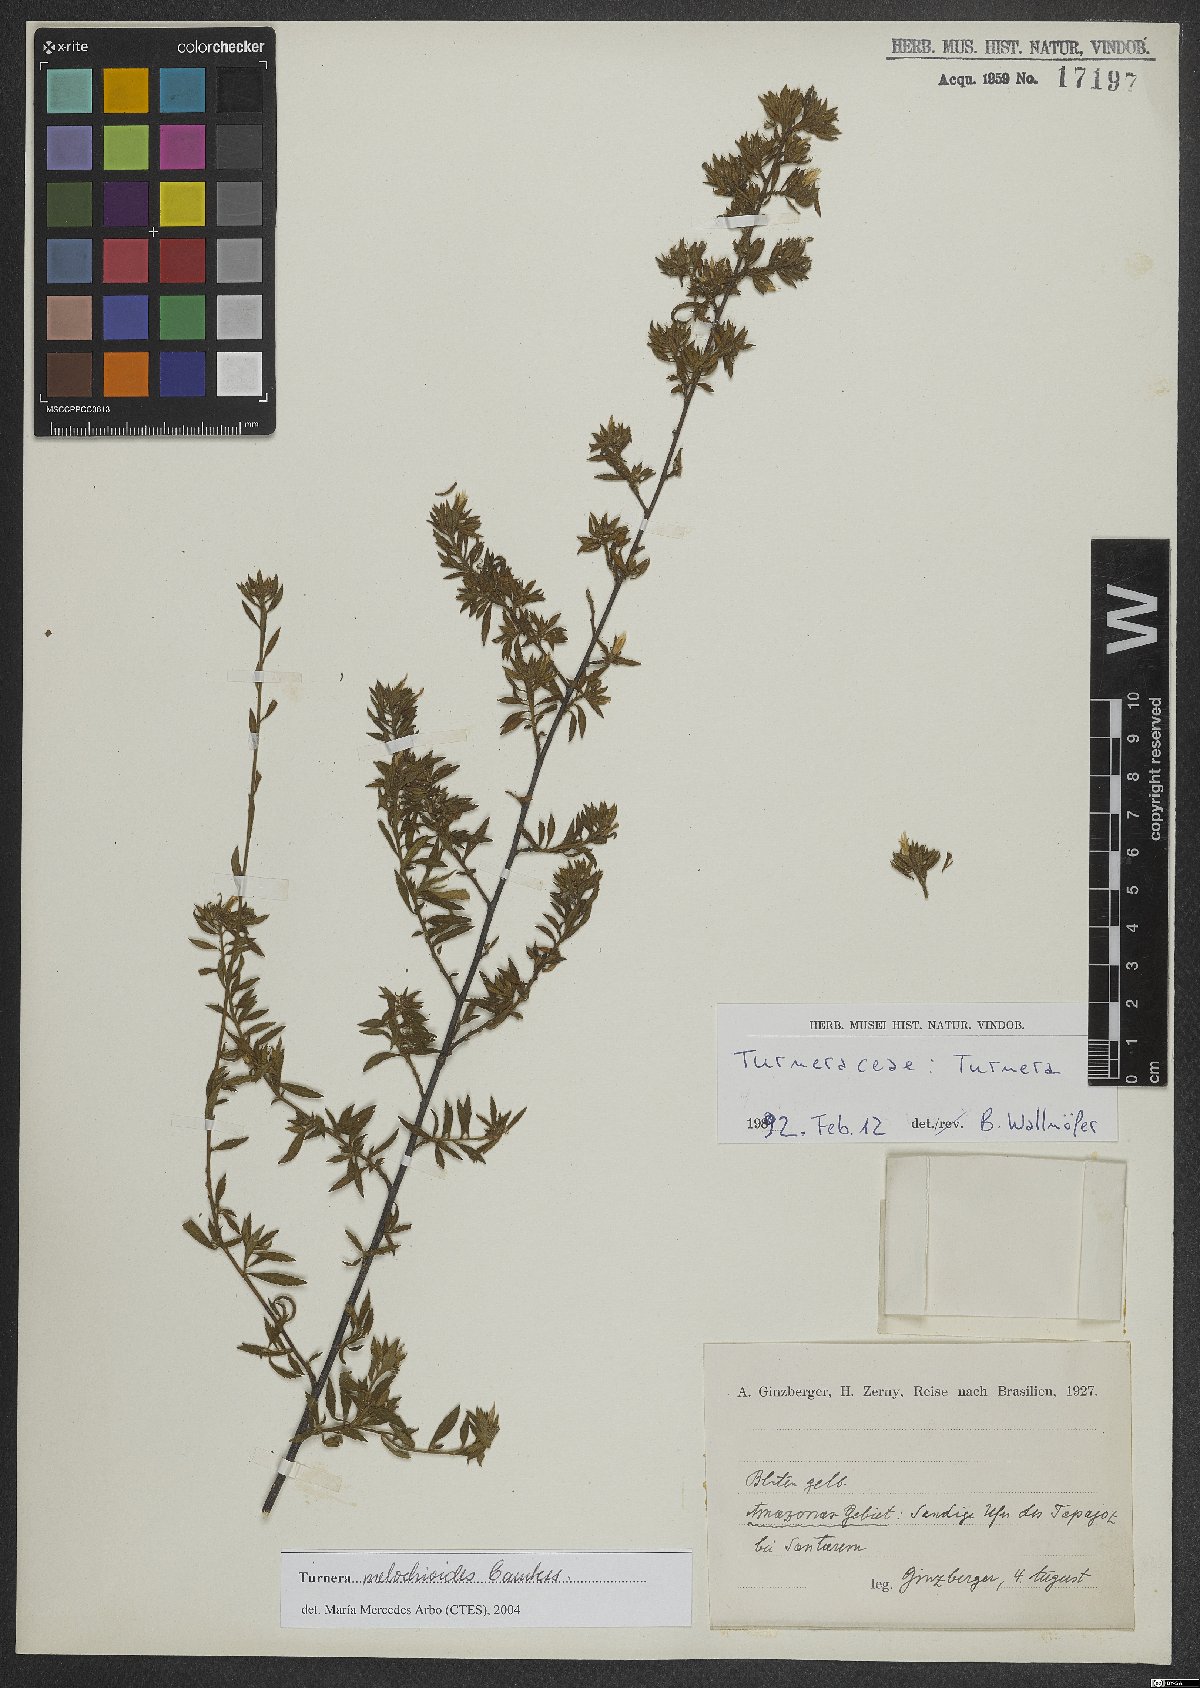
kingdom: Plantae
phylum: Tracheophyta
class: Magnoliopsida
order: Malpighiales
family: Turneraceae
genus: Turnera
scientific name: Turnera melochioides
